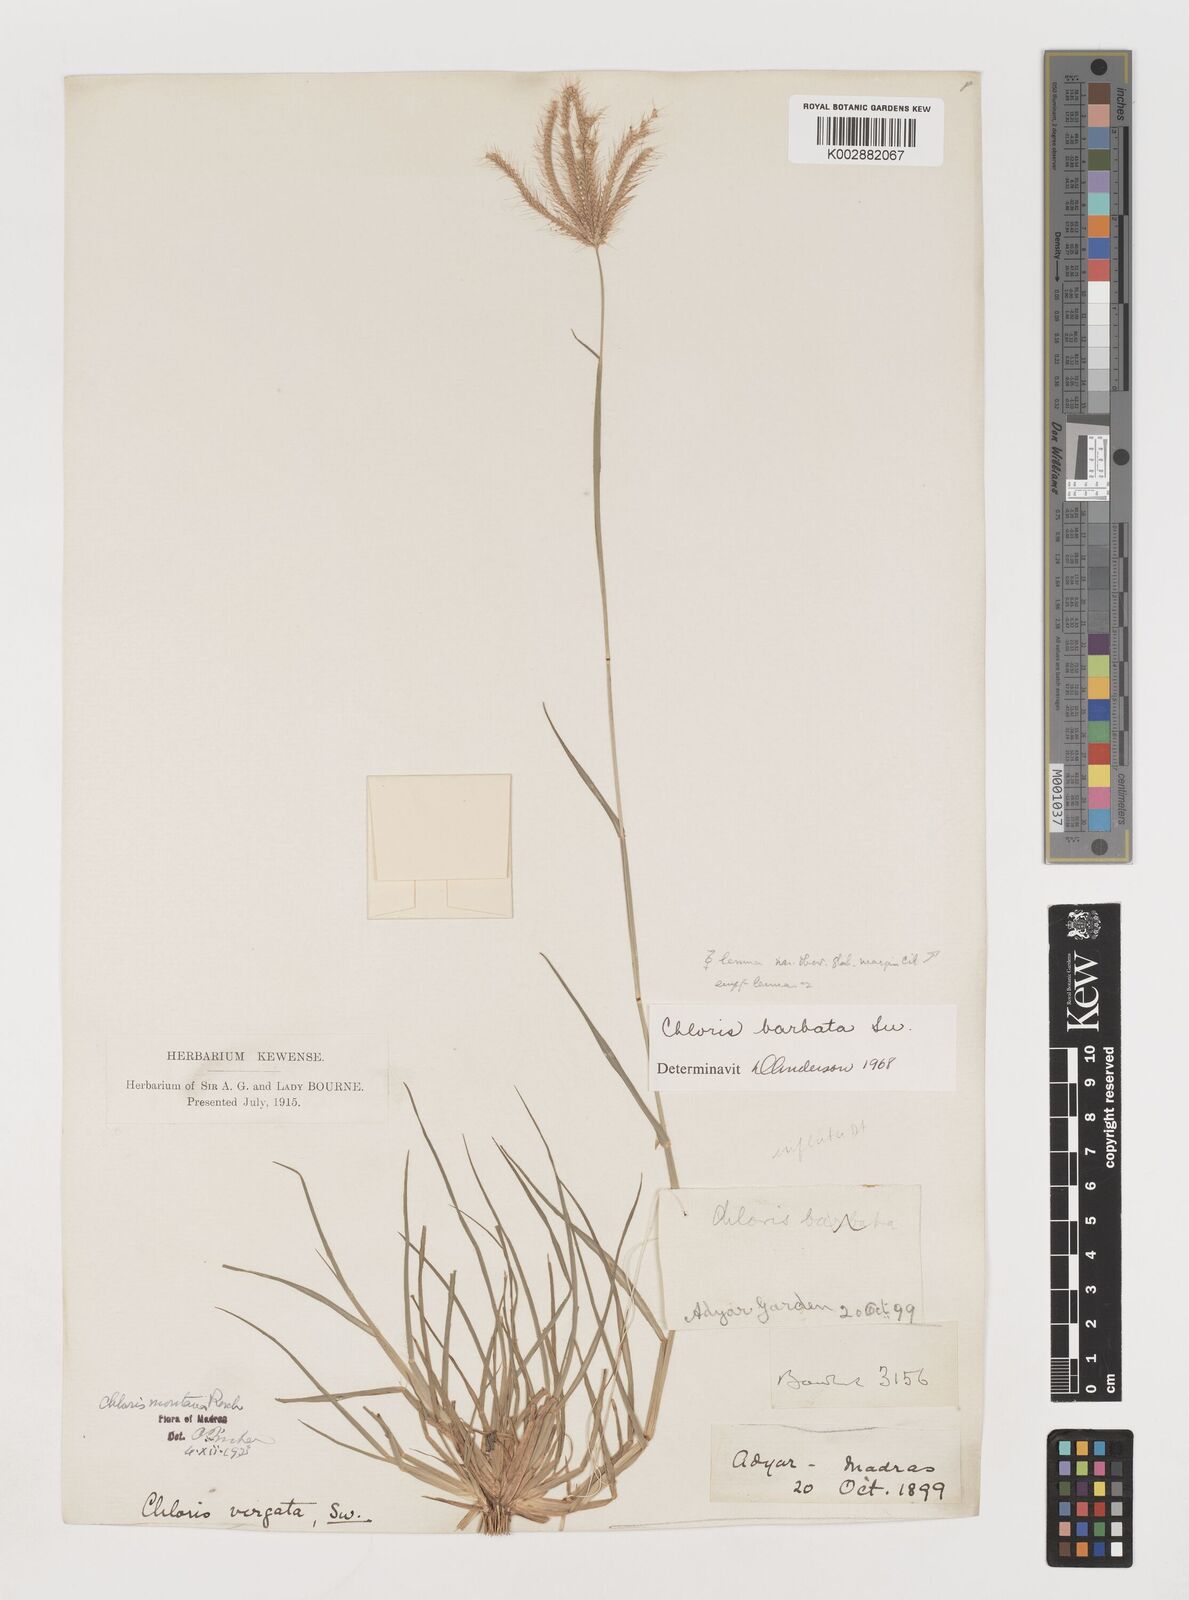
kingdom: Plantae
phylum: Tracheophyta
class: Liliopsida
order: Poales
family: Poaceae
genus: Chloris
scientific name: Chloris barbata
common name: Swollen fingergrass
